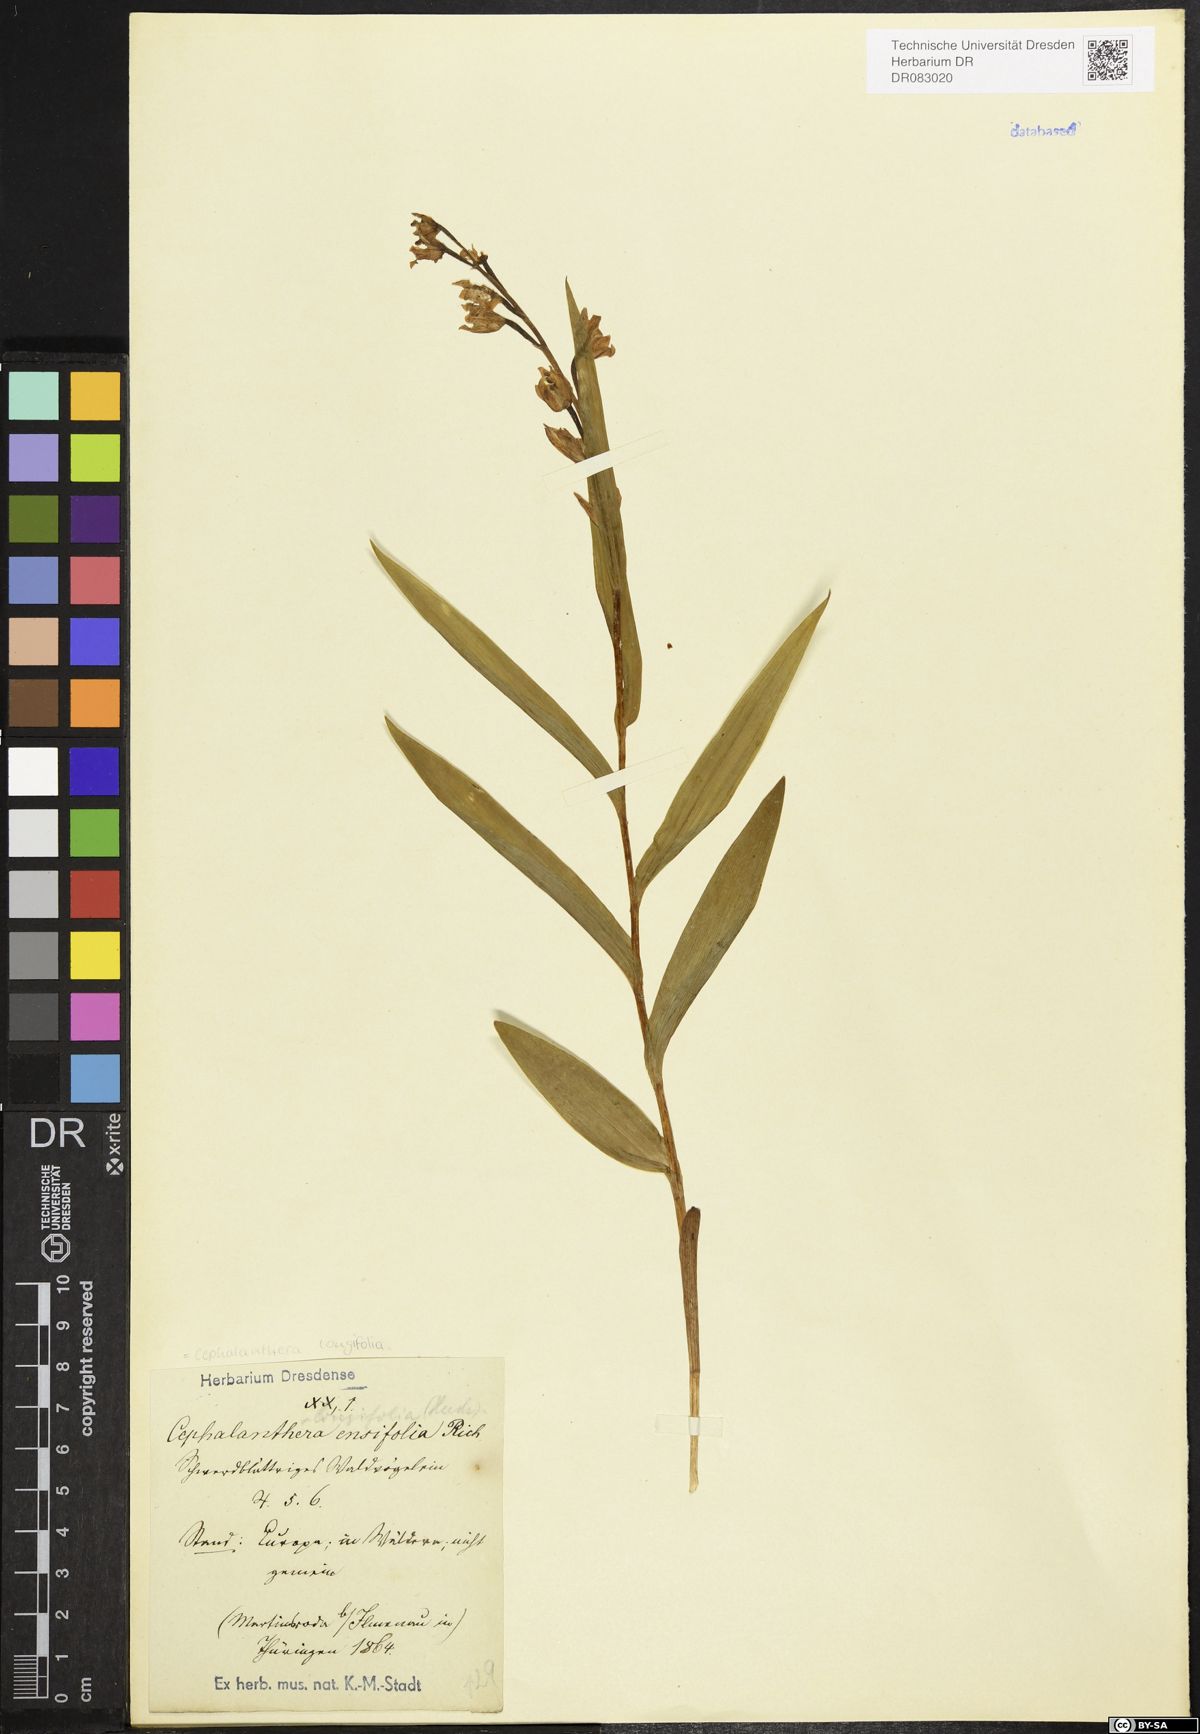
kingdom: Plantae
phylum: Tracheophyta
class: Liliopsida
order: Asparagales
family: Orchidaceae
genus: Cephalanthera
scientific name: Cephalanthera longifolia
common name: Narrow-leaved helleborine
